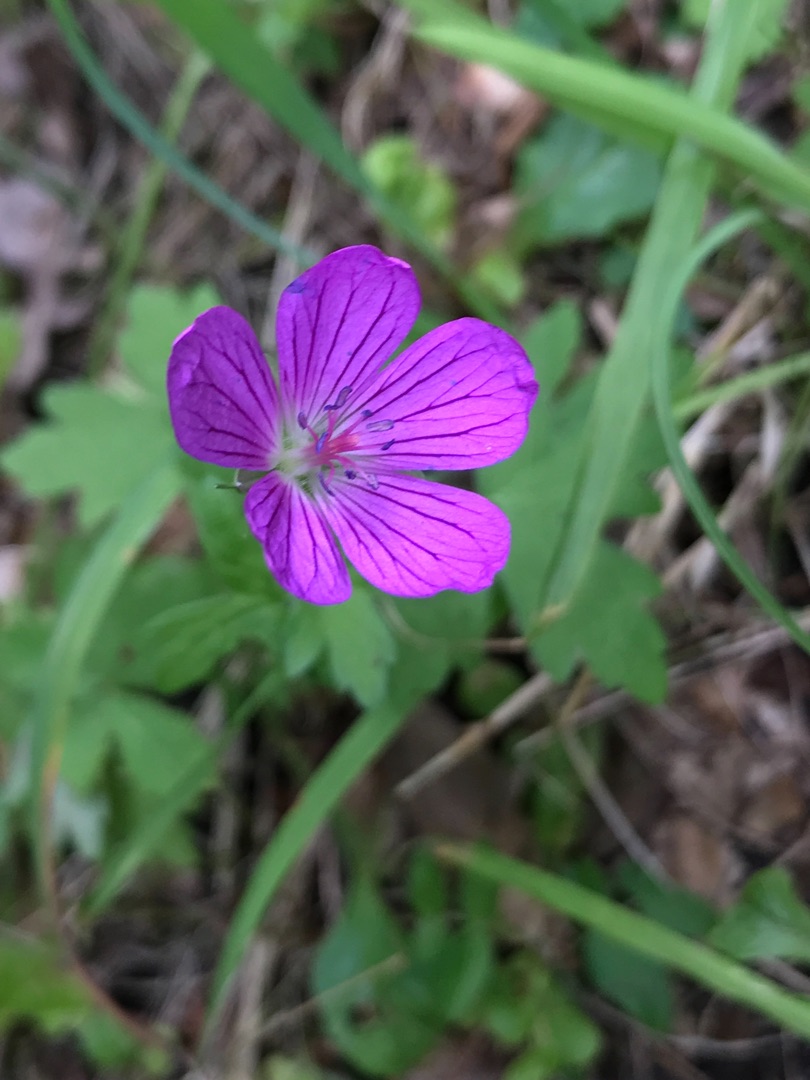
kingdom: Plantae
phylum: Tracheophyta
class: Magnoliopsida
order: Geraniales
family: Geraniaceae
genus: Geranium
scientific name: Geranium palustre
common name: Kær-storkenæb
